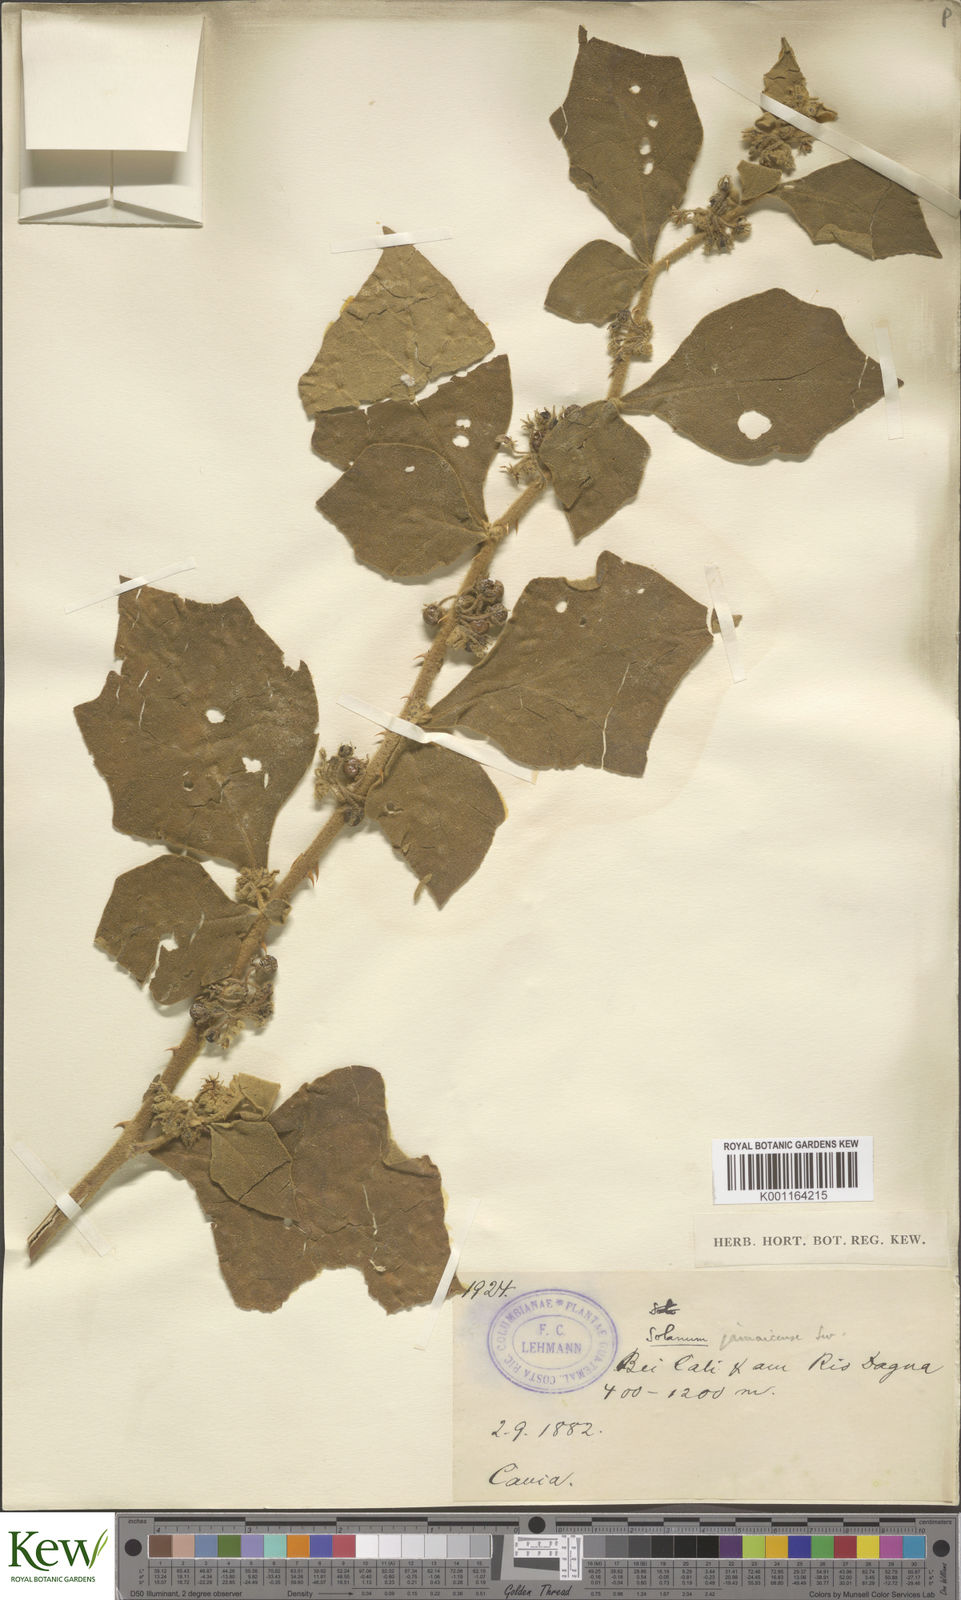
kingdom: Plantae
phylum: Tracheophyta
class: Magnoliopsida
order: Solanales
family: Solanaceae
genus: Solanum
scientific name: Solanum jamaicense
